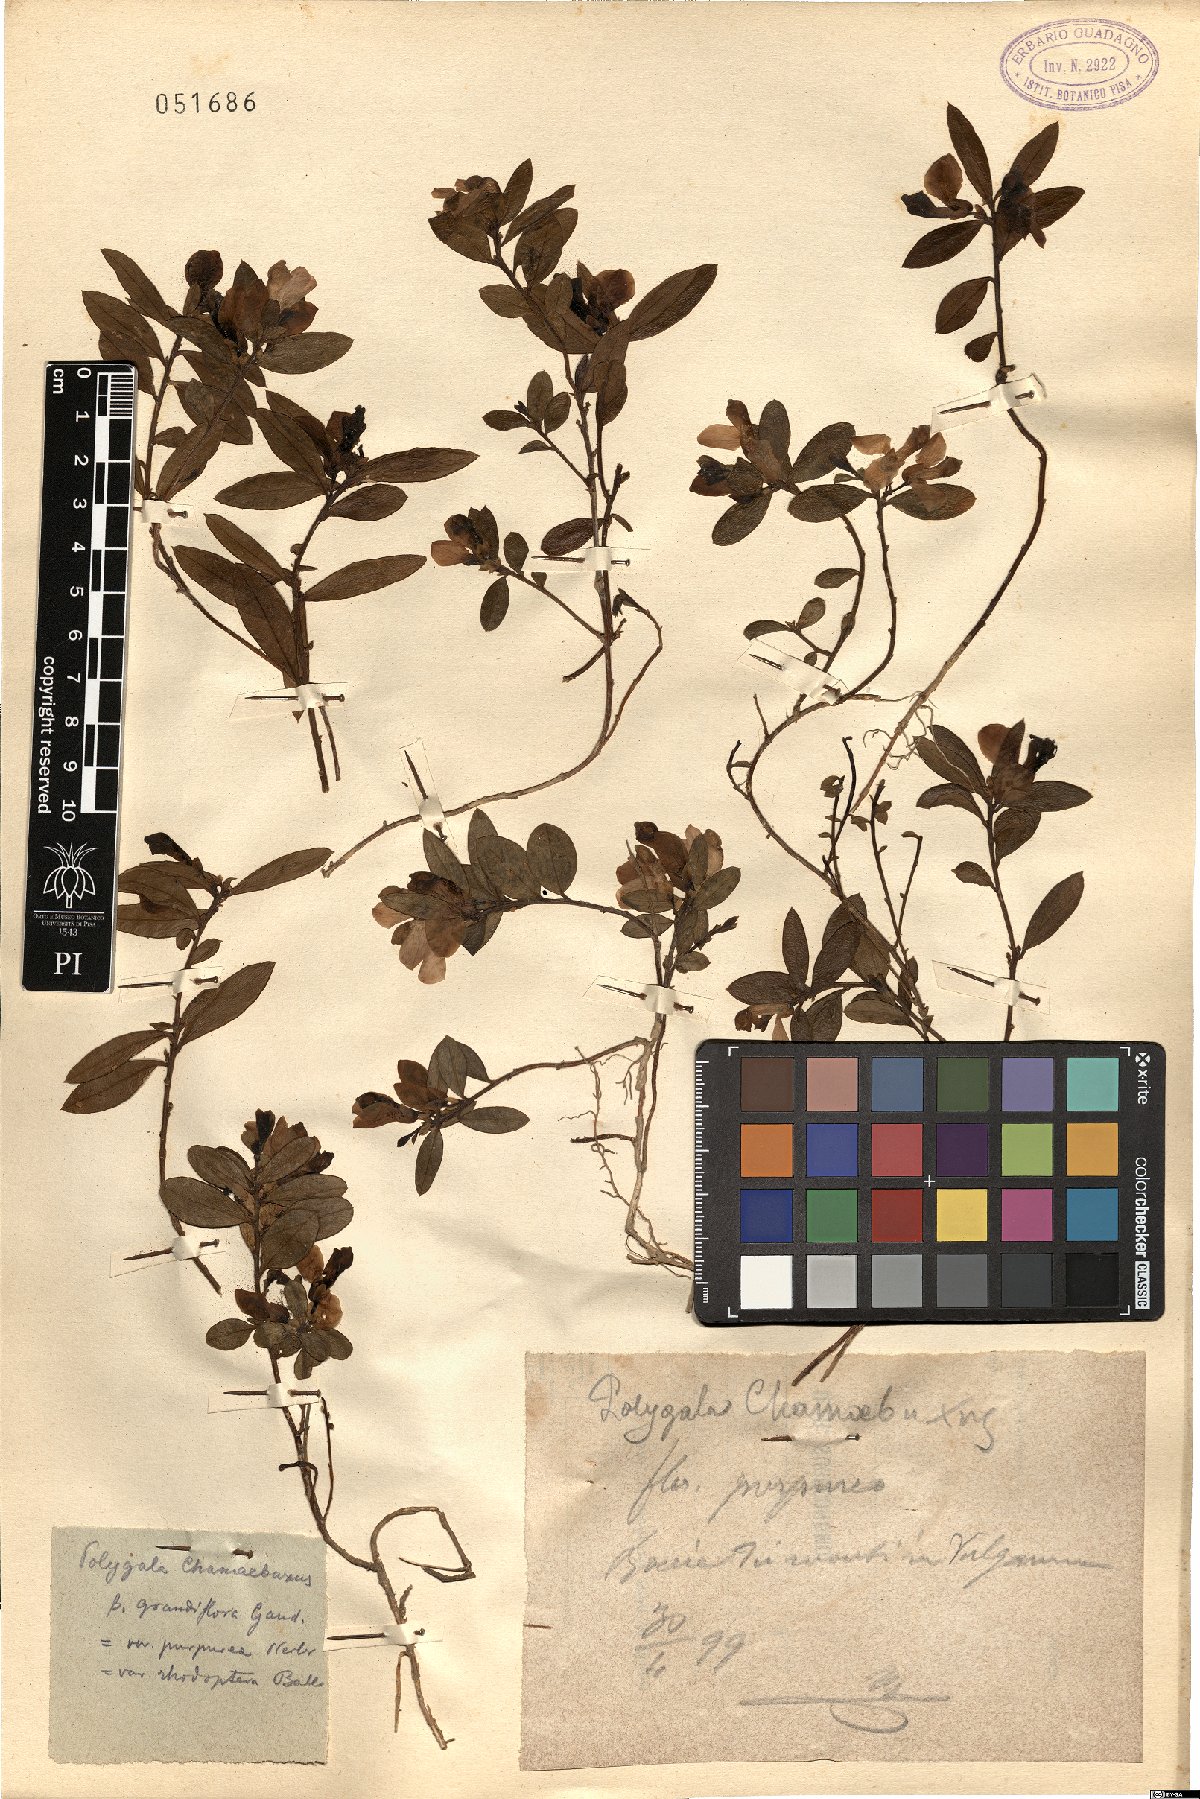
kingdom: Plantae
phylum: Tracheophyta
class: Magnoliopsida
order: Fabales
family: Polygalaceae
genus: Polygaloides
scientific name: Polygaloides chamaebuxus
